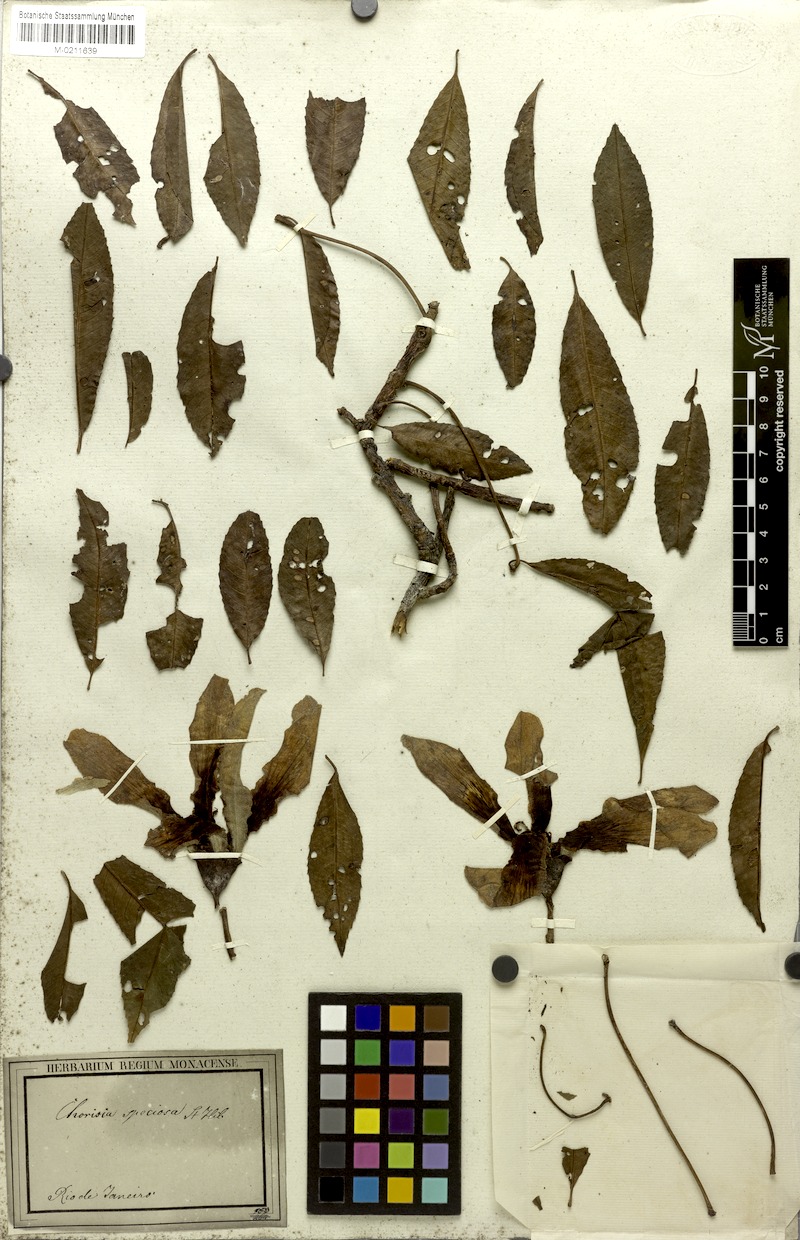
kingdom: Plantae
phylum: Tracheophyta
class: Magnoliopsida
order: Malvales
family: Malvaceae
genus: Ceiba
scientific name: Ceiba speciosa
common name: Silk-floss tree
